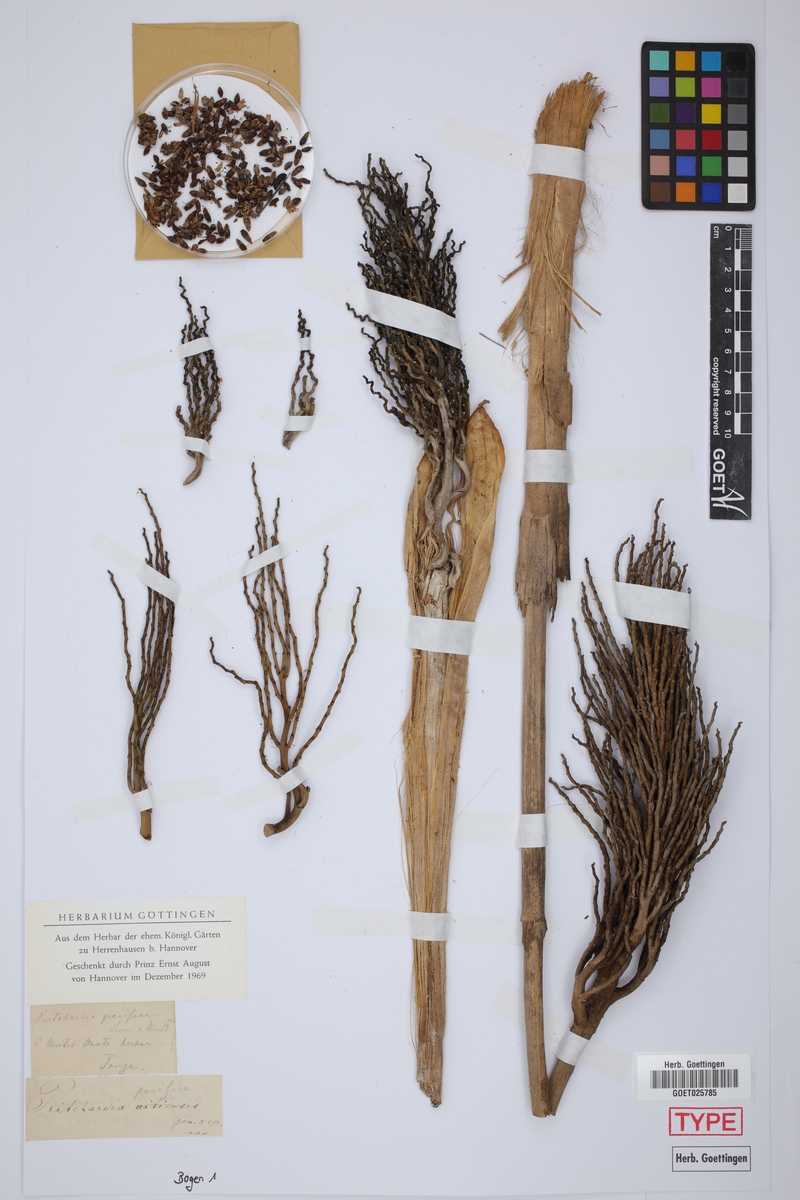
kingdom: Plantae
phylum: Tracheophyta
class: Liliopsida
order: Arecales
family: Arecaceae
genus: Pritchardia
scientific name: Pritchardia pacifica
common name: Fiji fan palm
